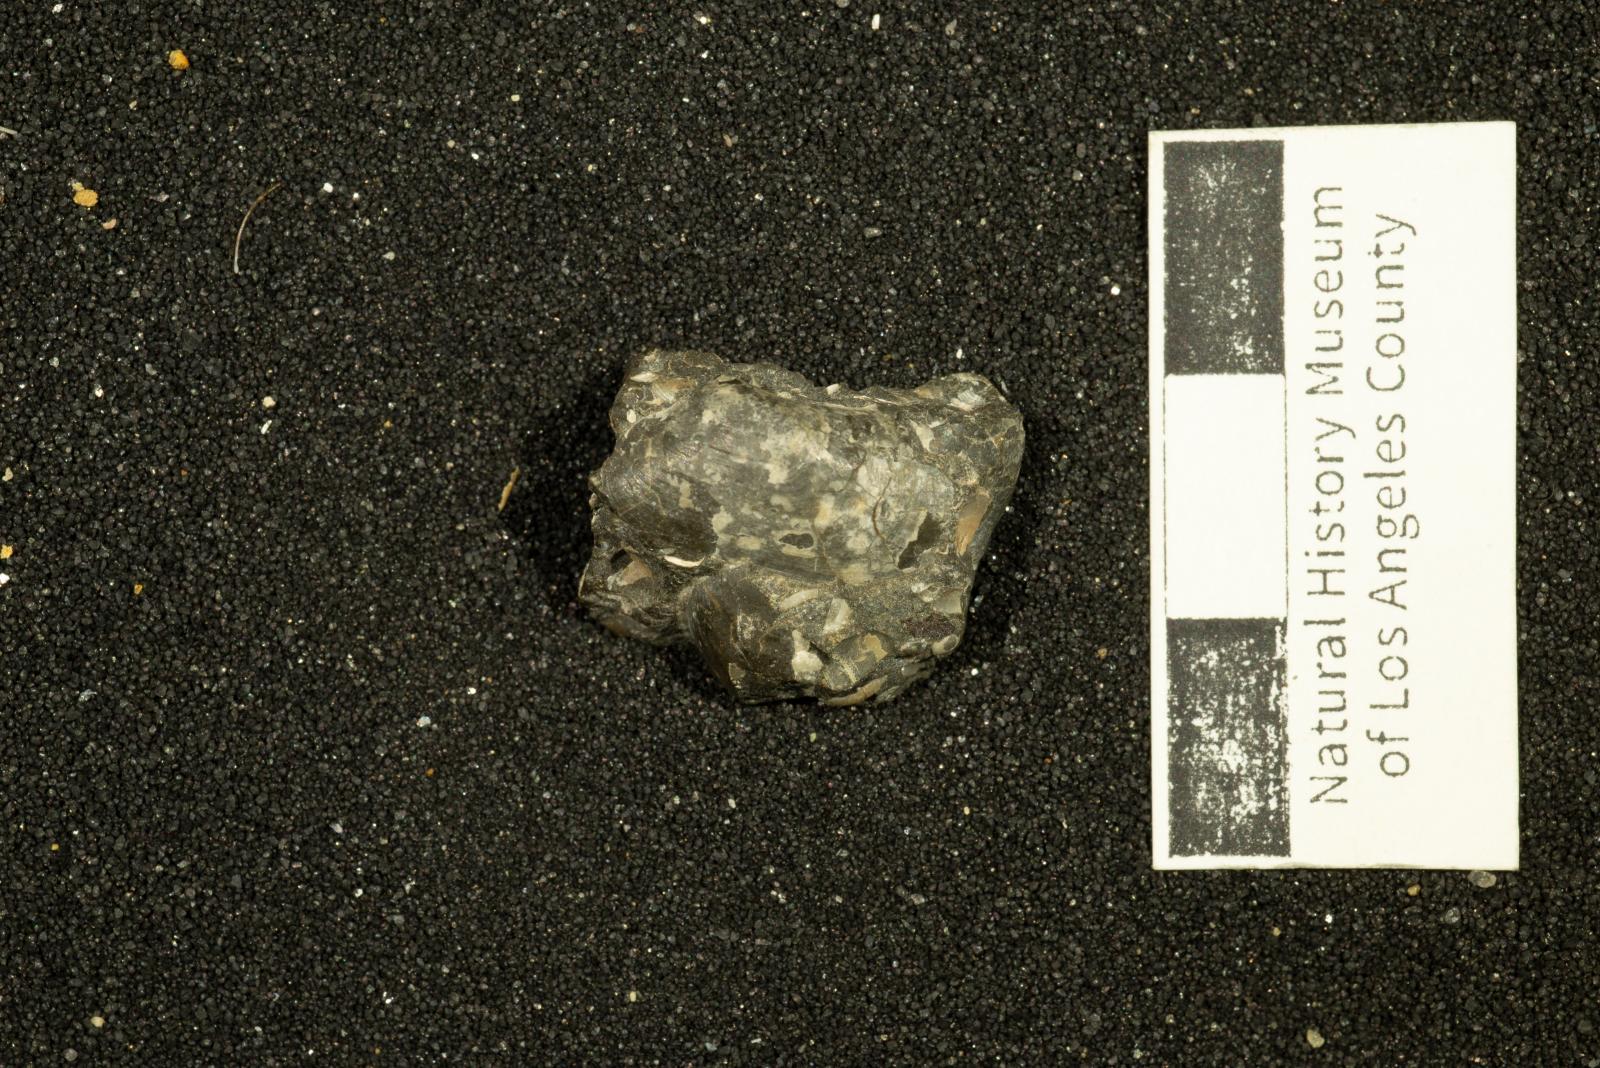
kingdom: Animalia
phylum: Mollusca
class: Bivalvia
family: Laternulidae
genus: Laternula
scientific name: Laternula
